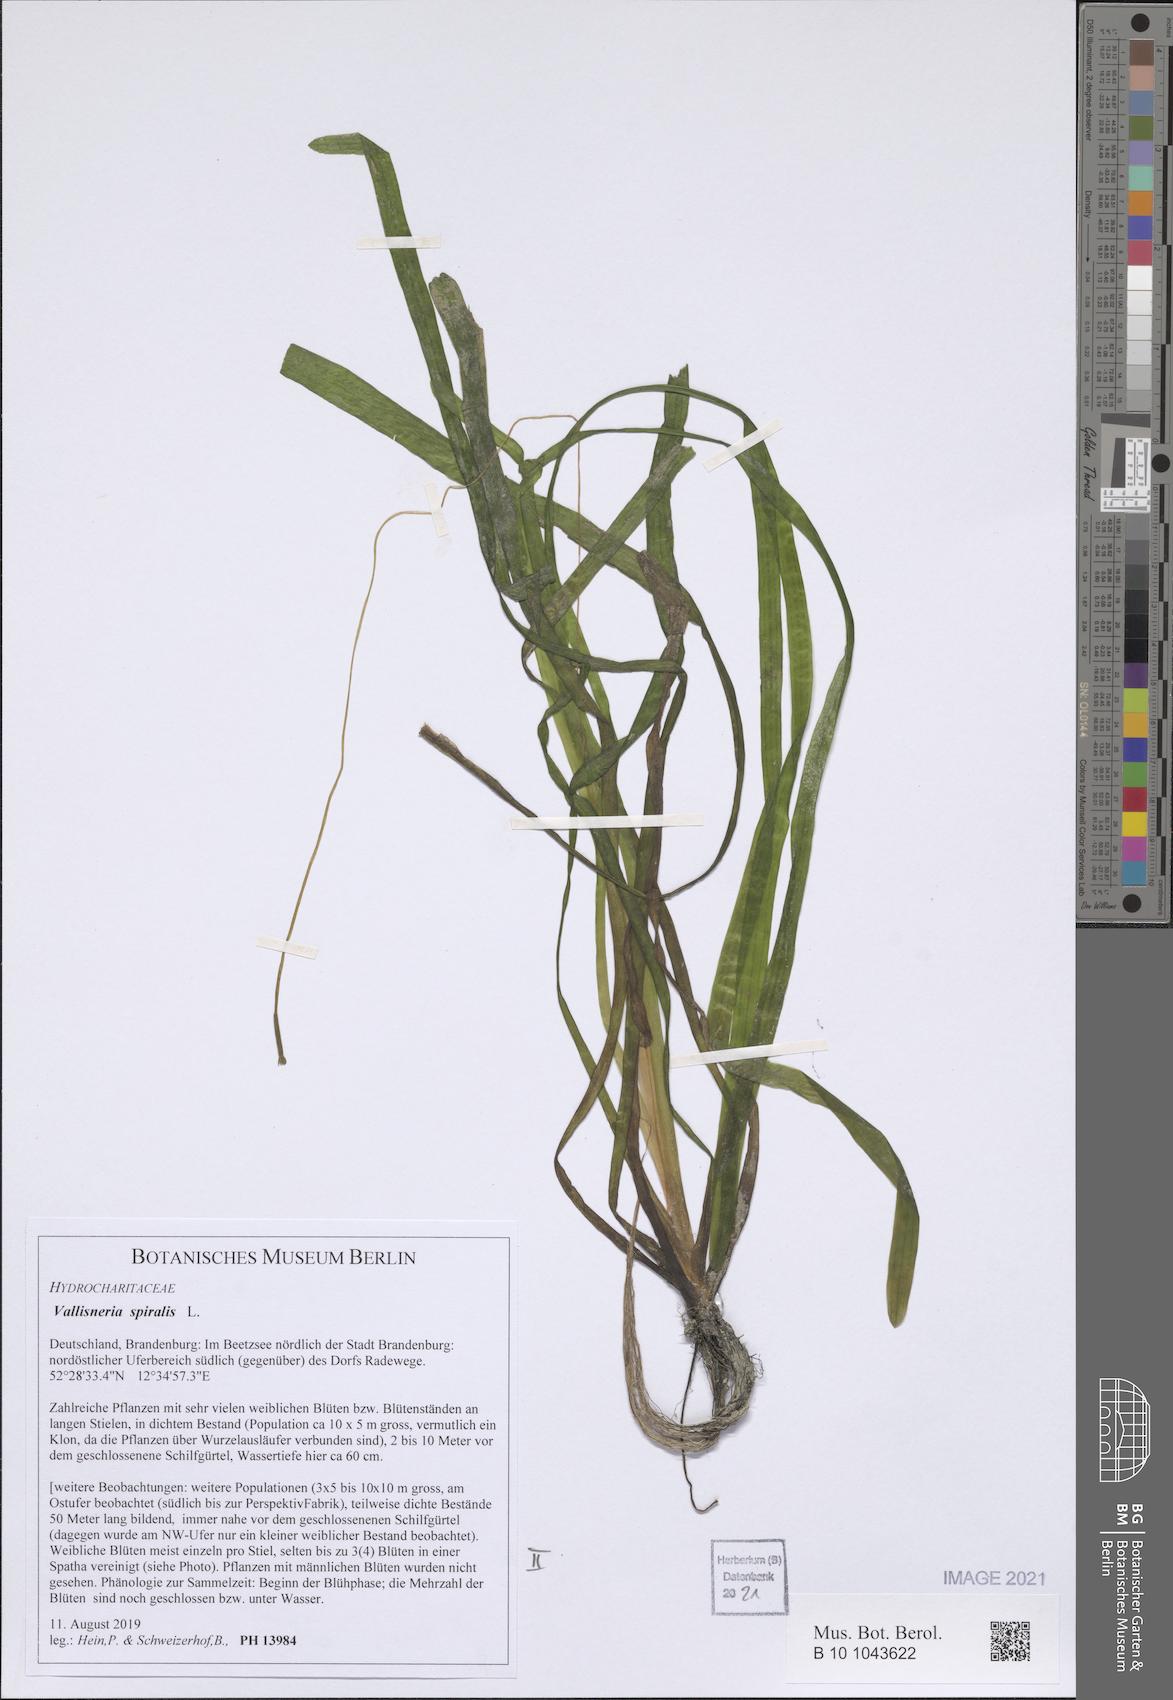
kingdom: Plantae
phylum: Tracheophyta
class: Liliopsida
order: Alismatales
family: Hydrocharitaceae
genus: Vallisneria
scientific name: Vallisneria spiralis
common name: Tapegrass
